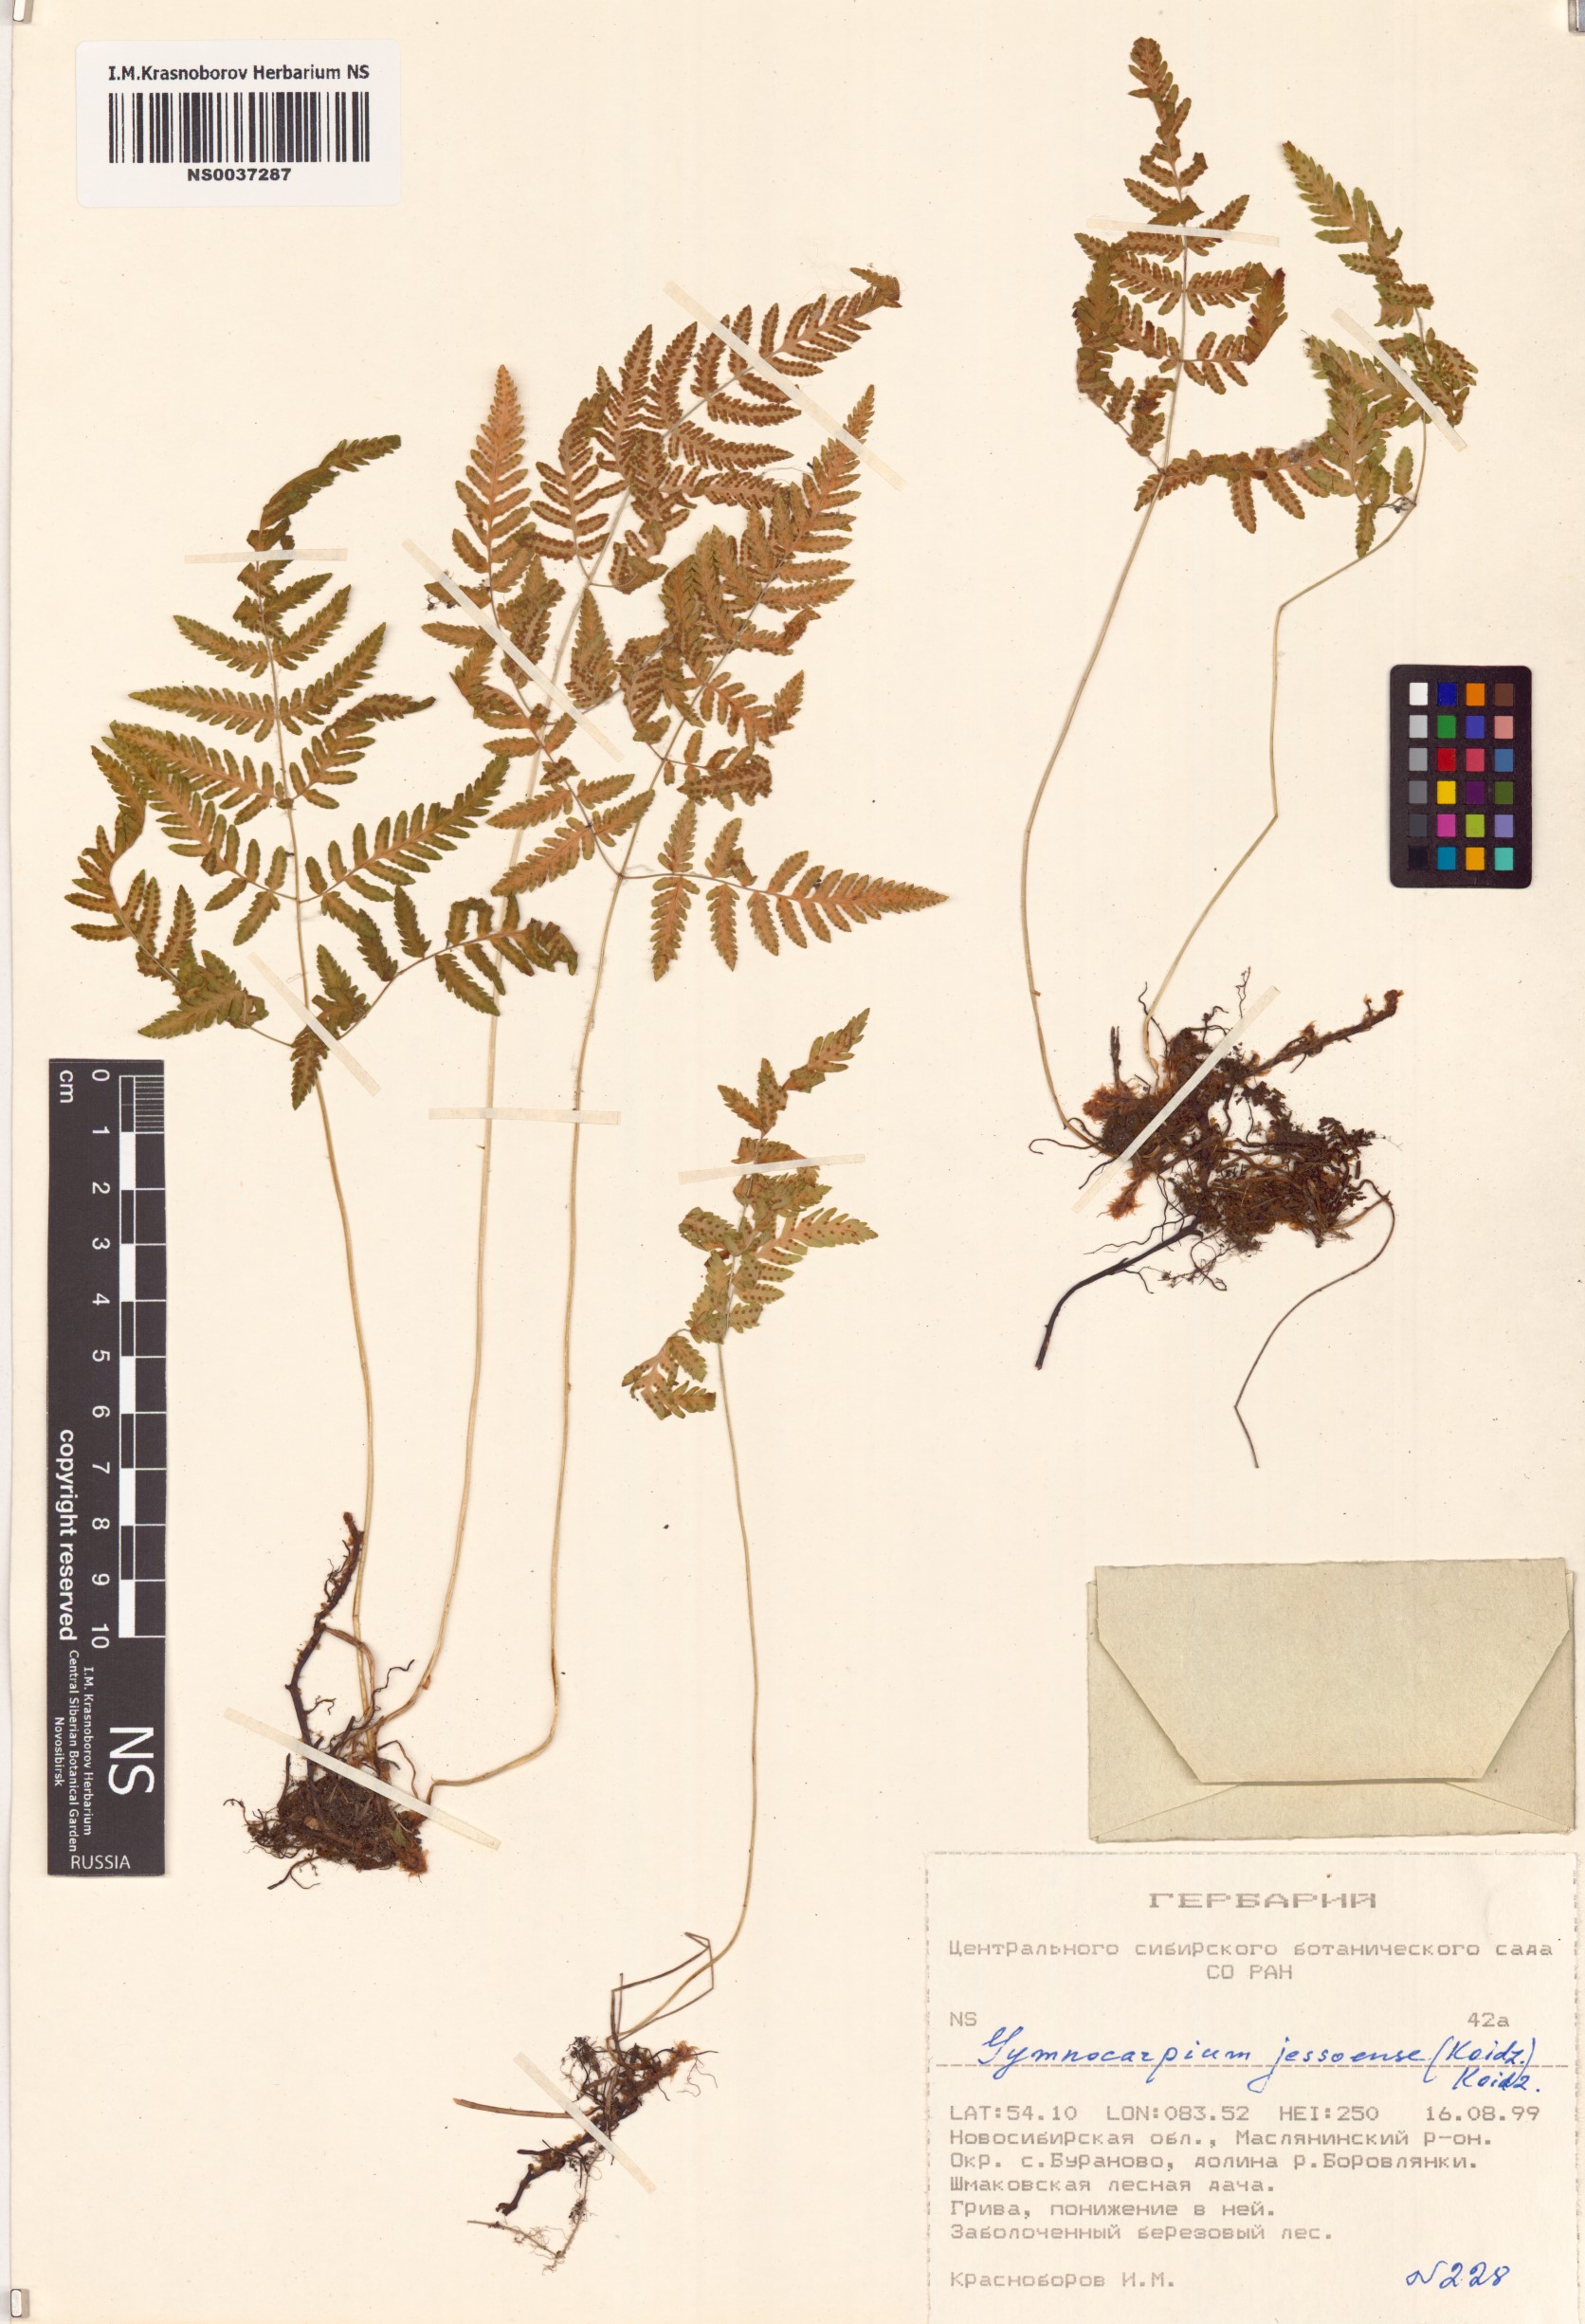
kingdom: Plantae
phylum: Tracheophyta
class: Polypodiopsida
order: Polypodiales
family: Cystopteridaceae
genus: Gymnocarpium
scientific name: Gymnocarpium jessoense
